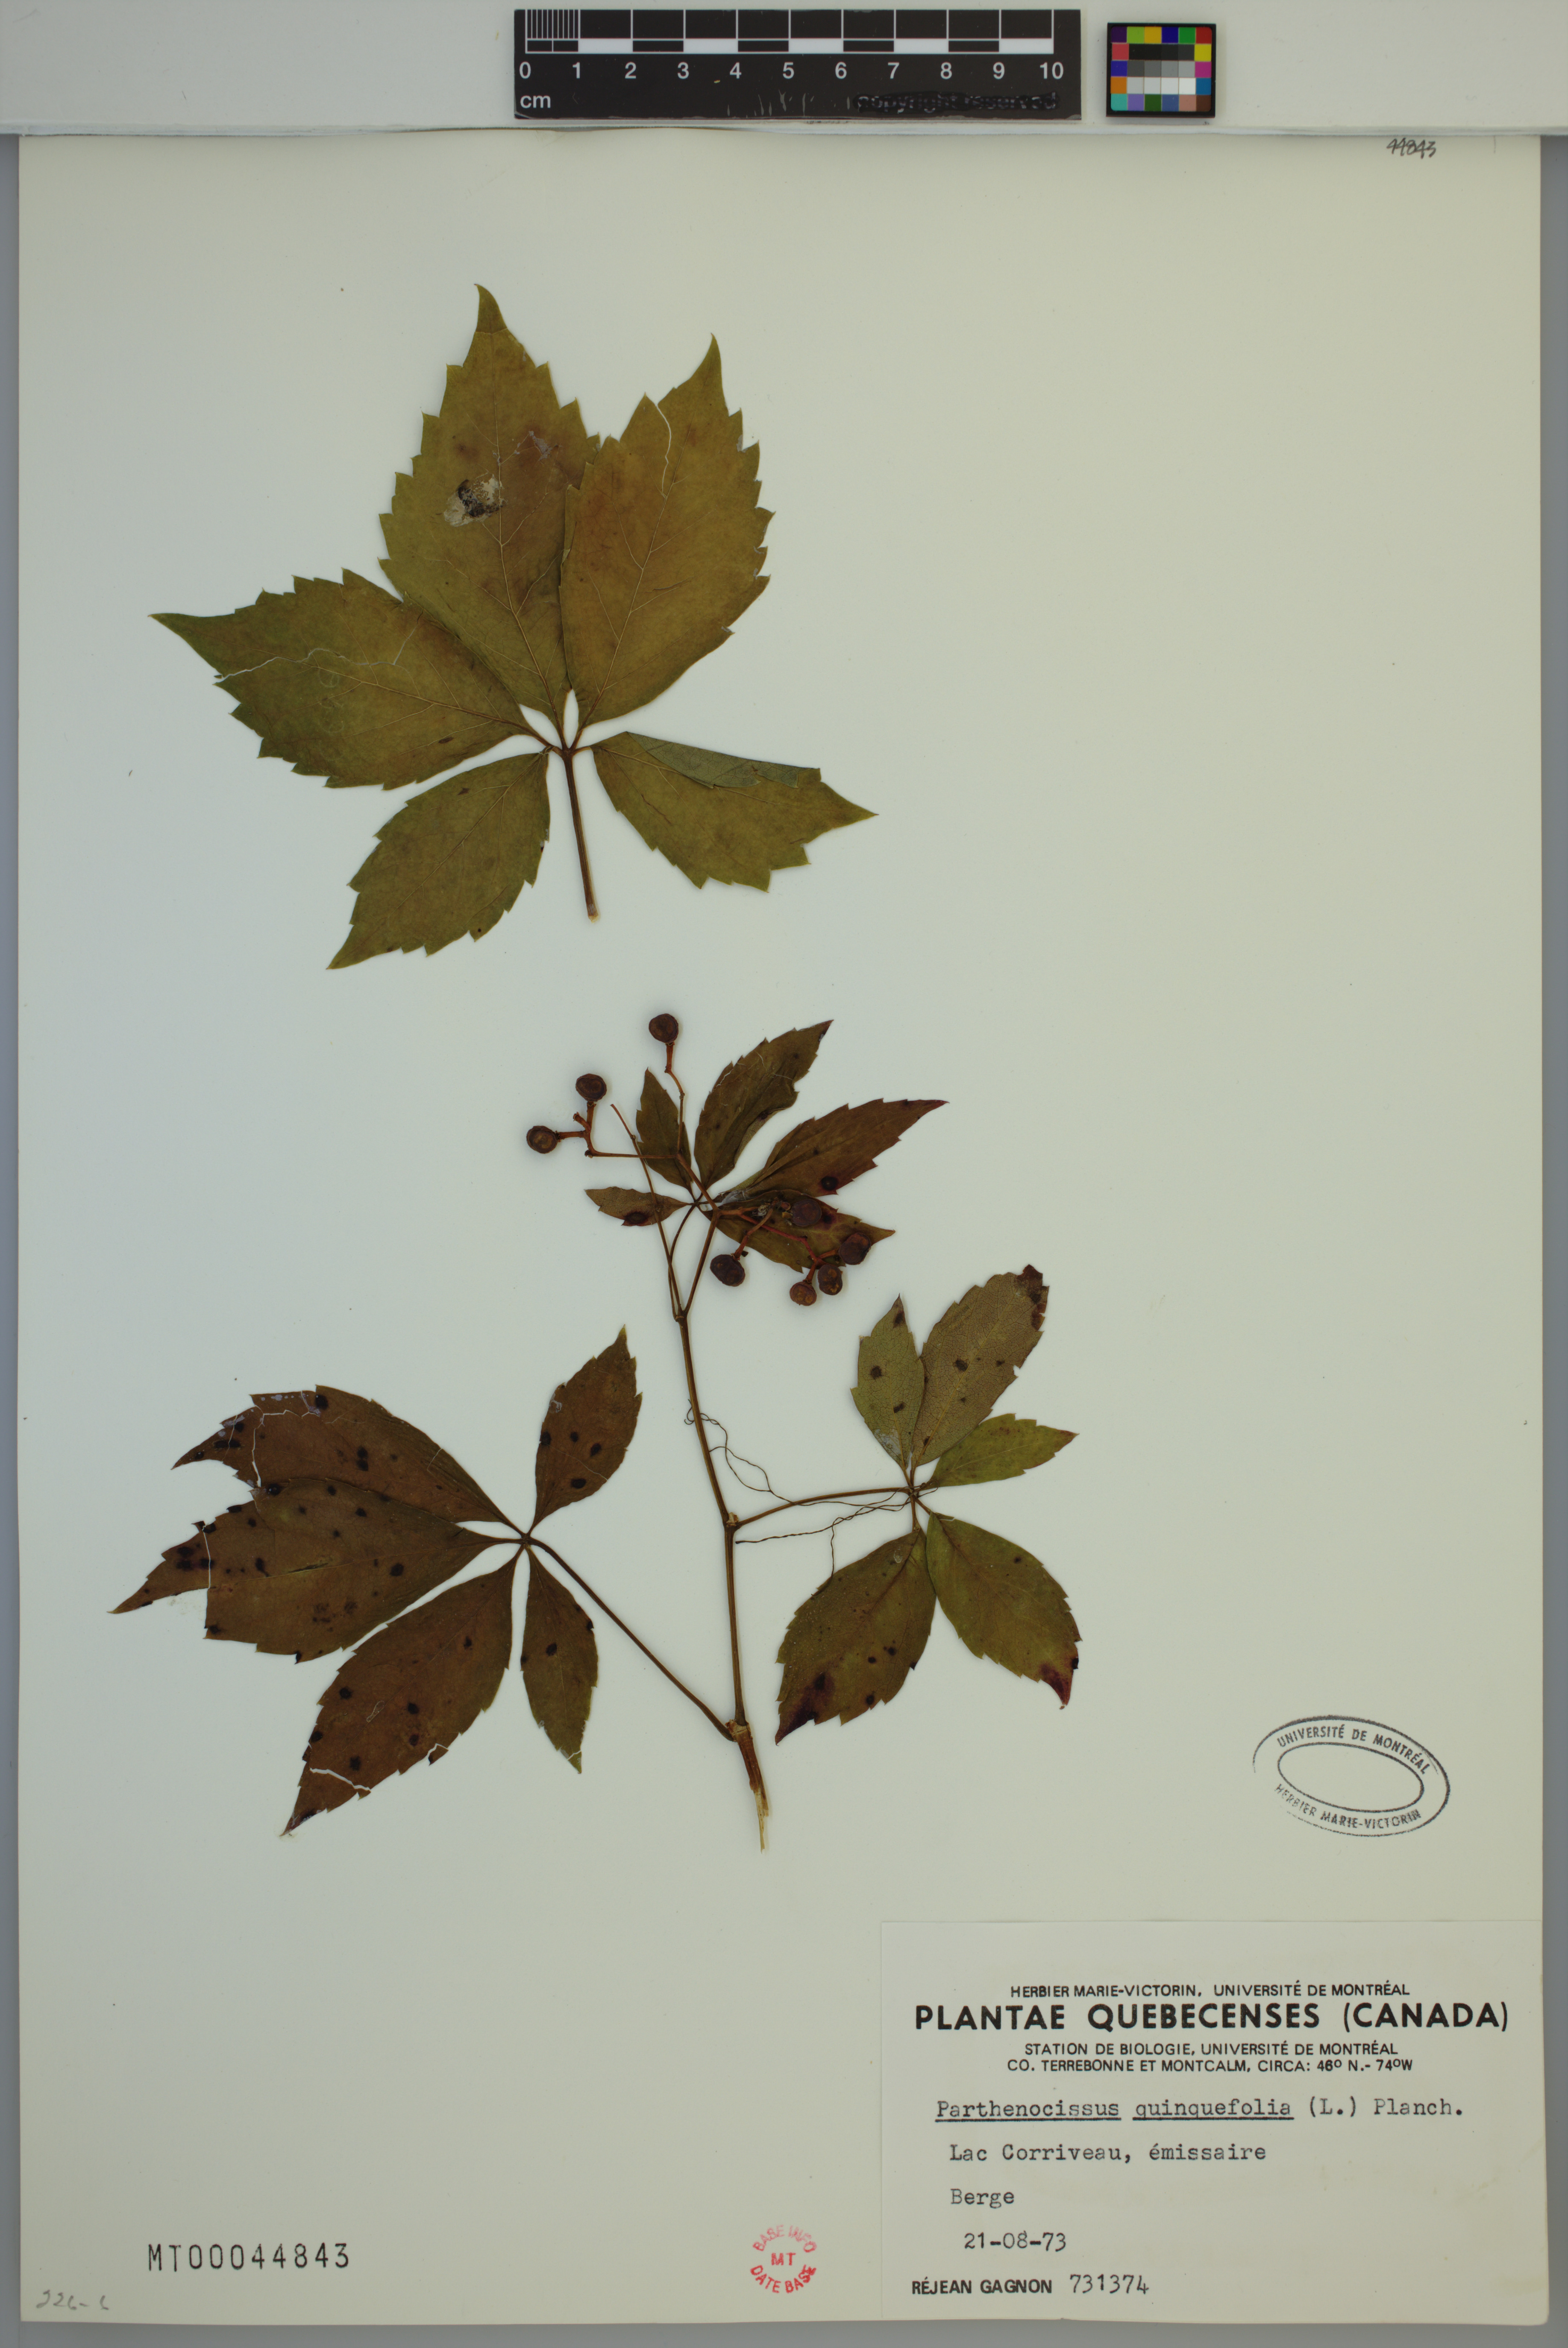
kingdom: Plantae
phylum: Tracheophyta
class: Magnoliopsida
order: Vitales
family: Vitaceae
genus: Parthenocissus
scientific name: Parthenocissus quinquefolia
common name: Virginia-creeper
